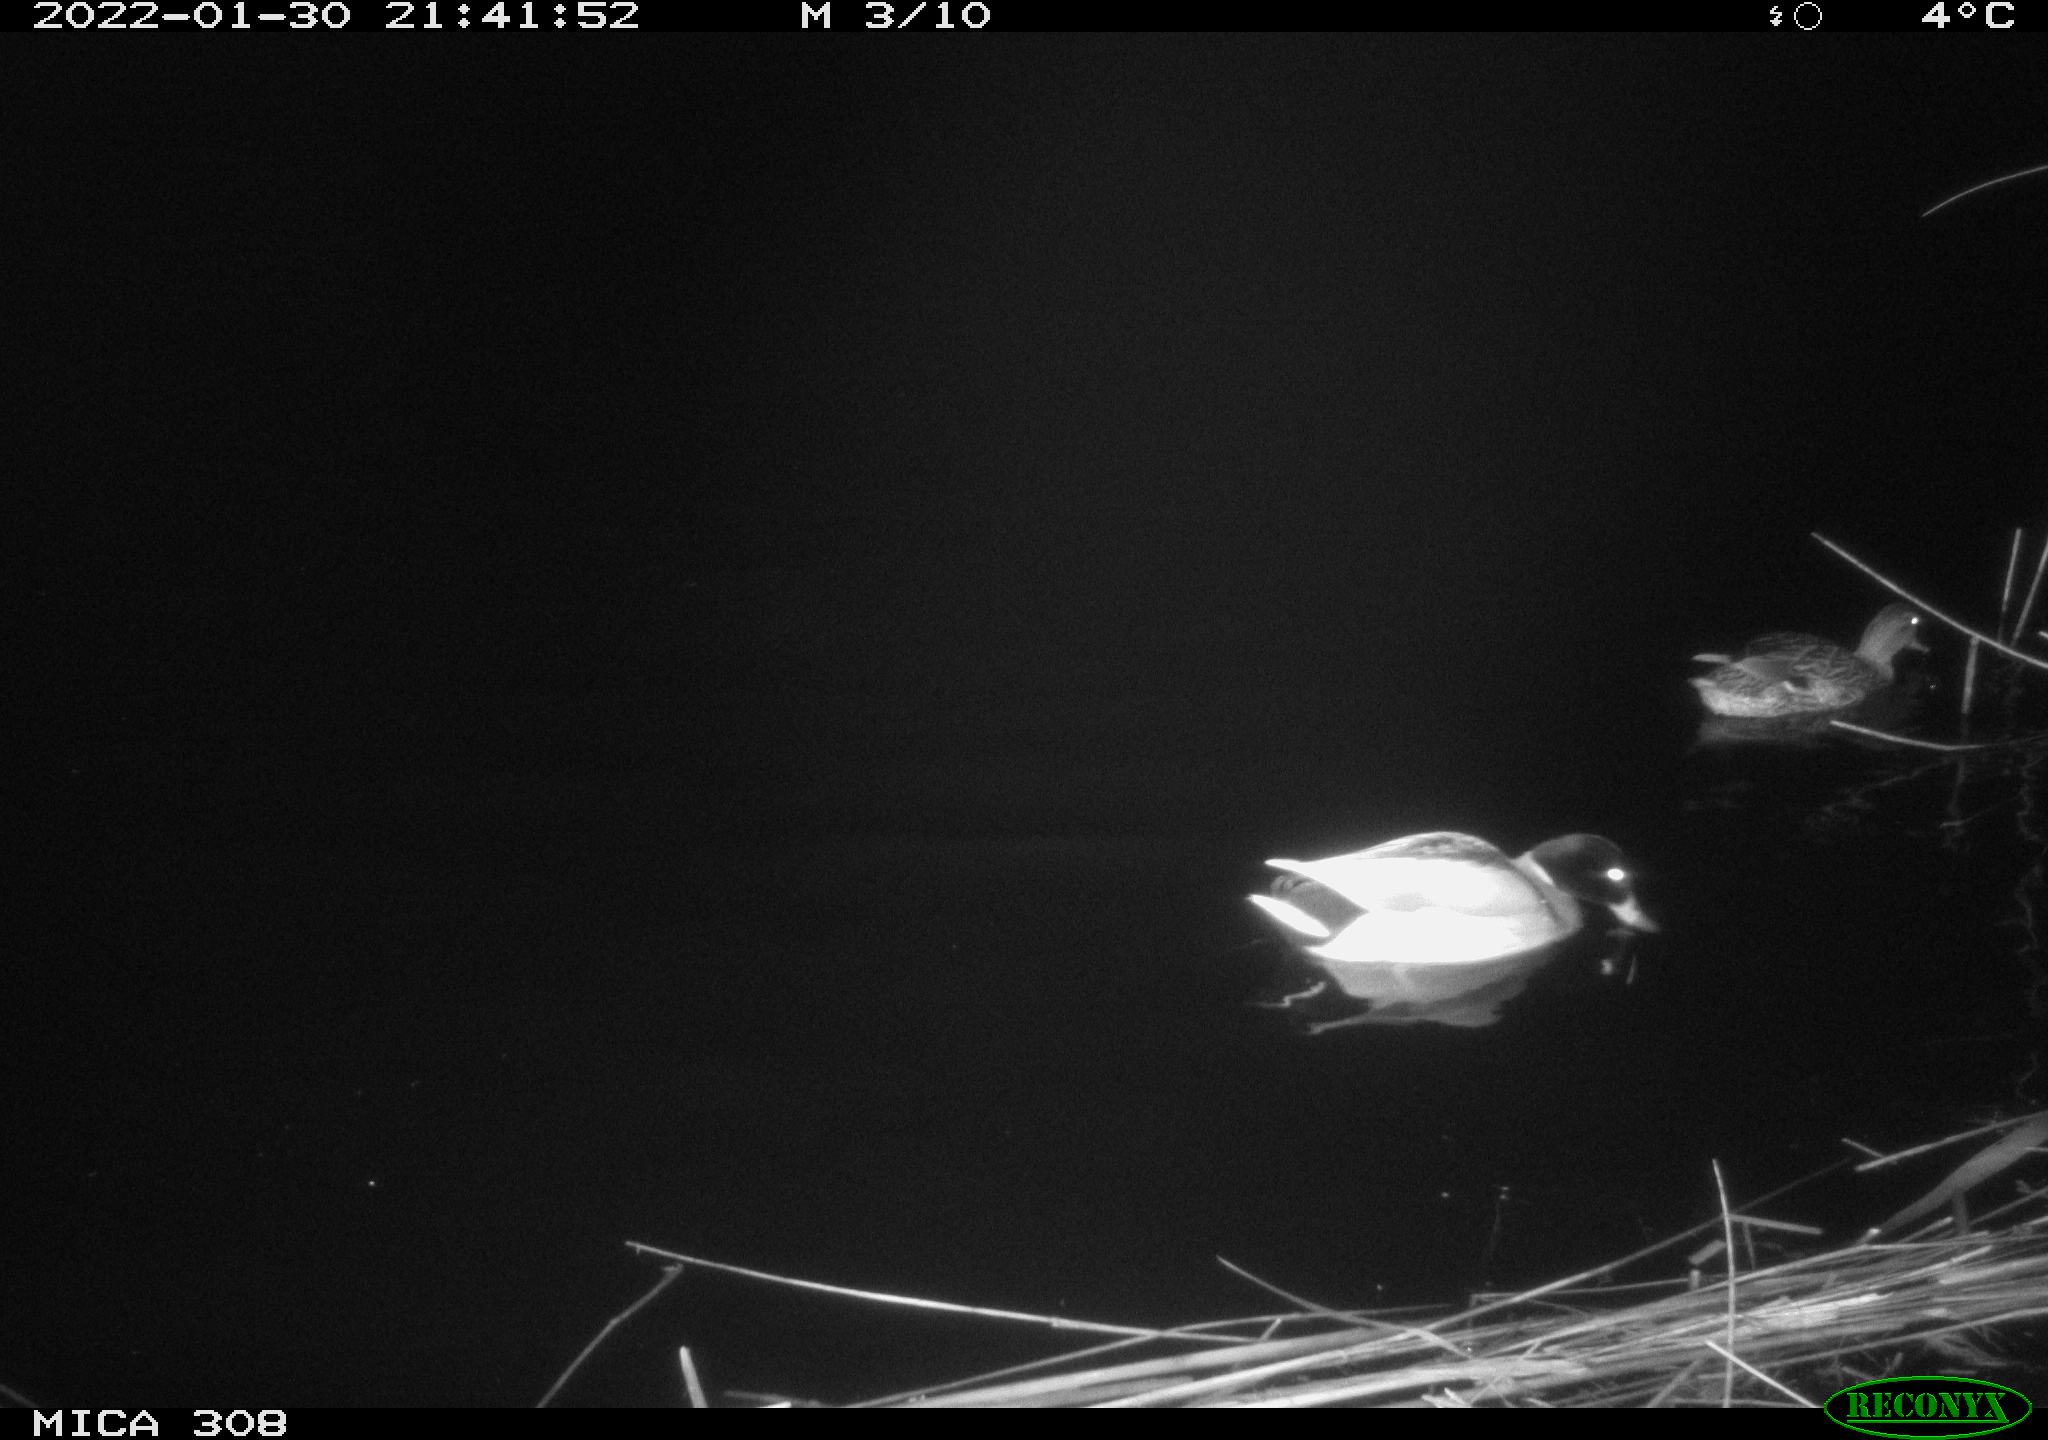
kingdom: Animalia
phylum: Chordata
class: Aves
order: Anseriformes
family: Anatidae
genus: Anas
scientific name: Anas
